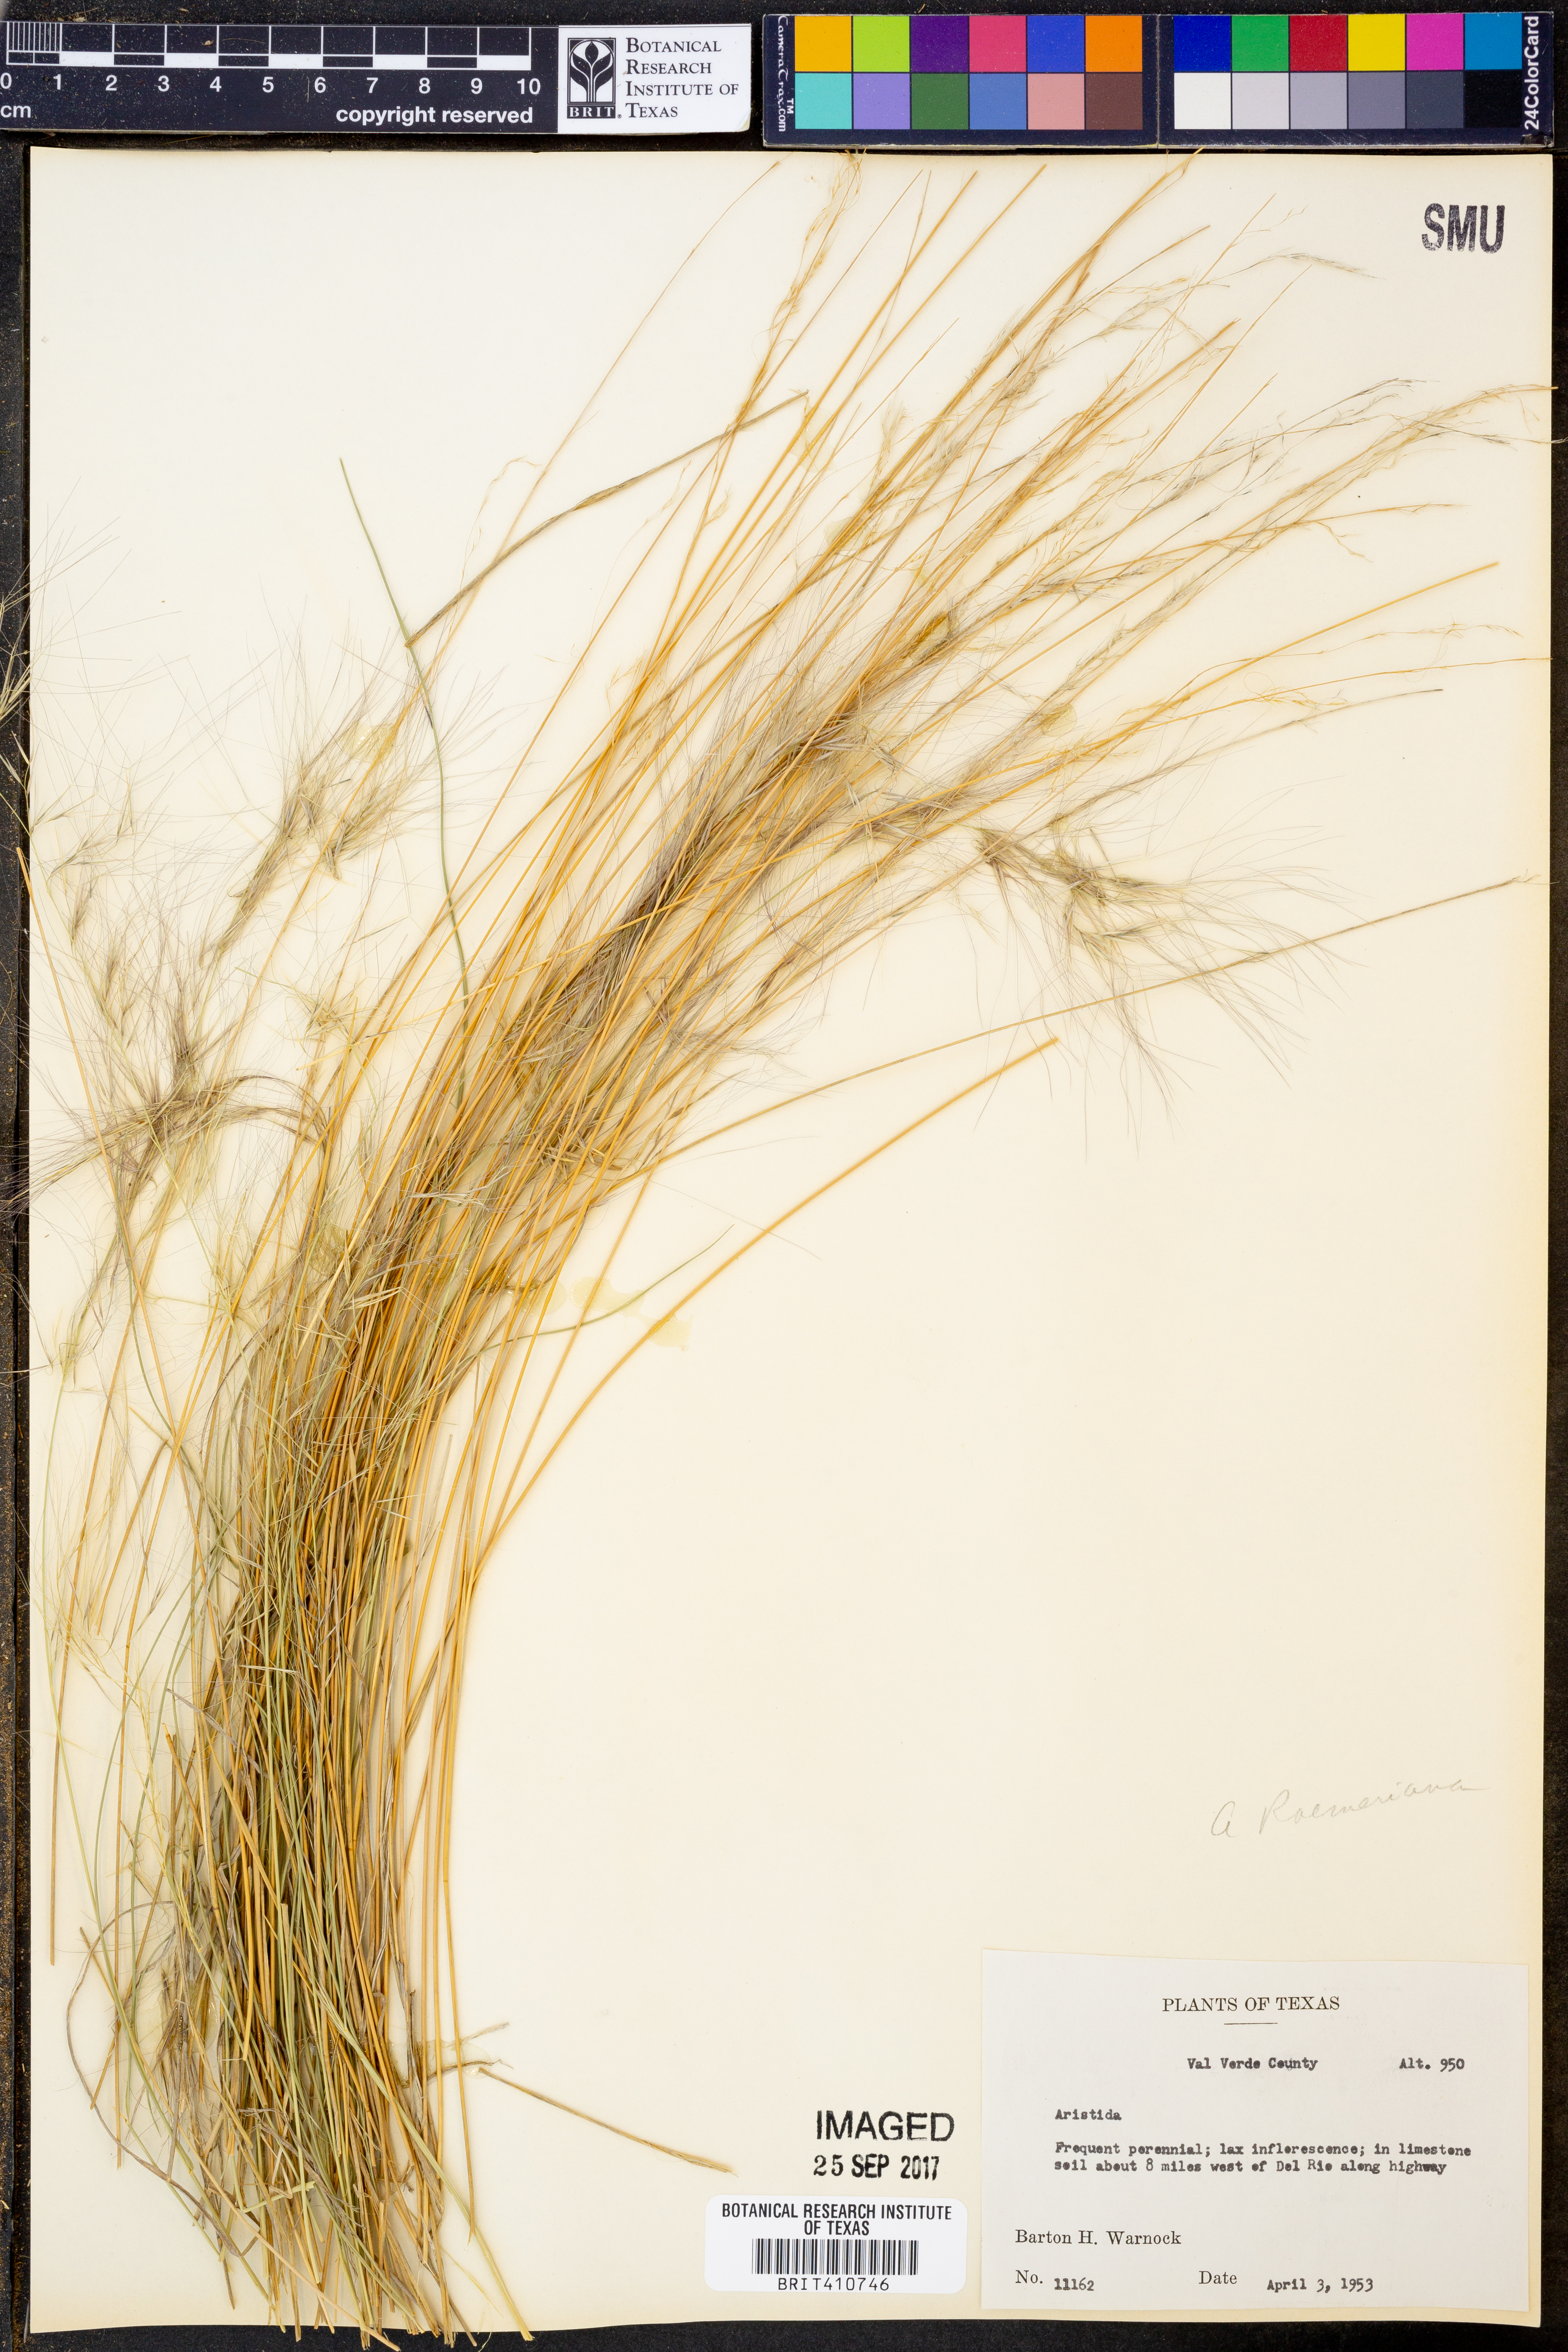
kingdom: Plantae
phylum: Tracheophyta
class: Liliopsida
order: Poales
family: Poaceae
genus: Aristida
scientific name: Aristida
